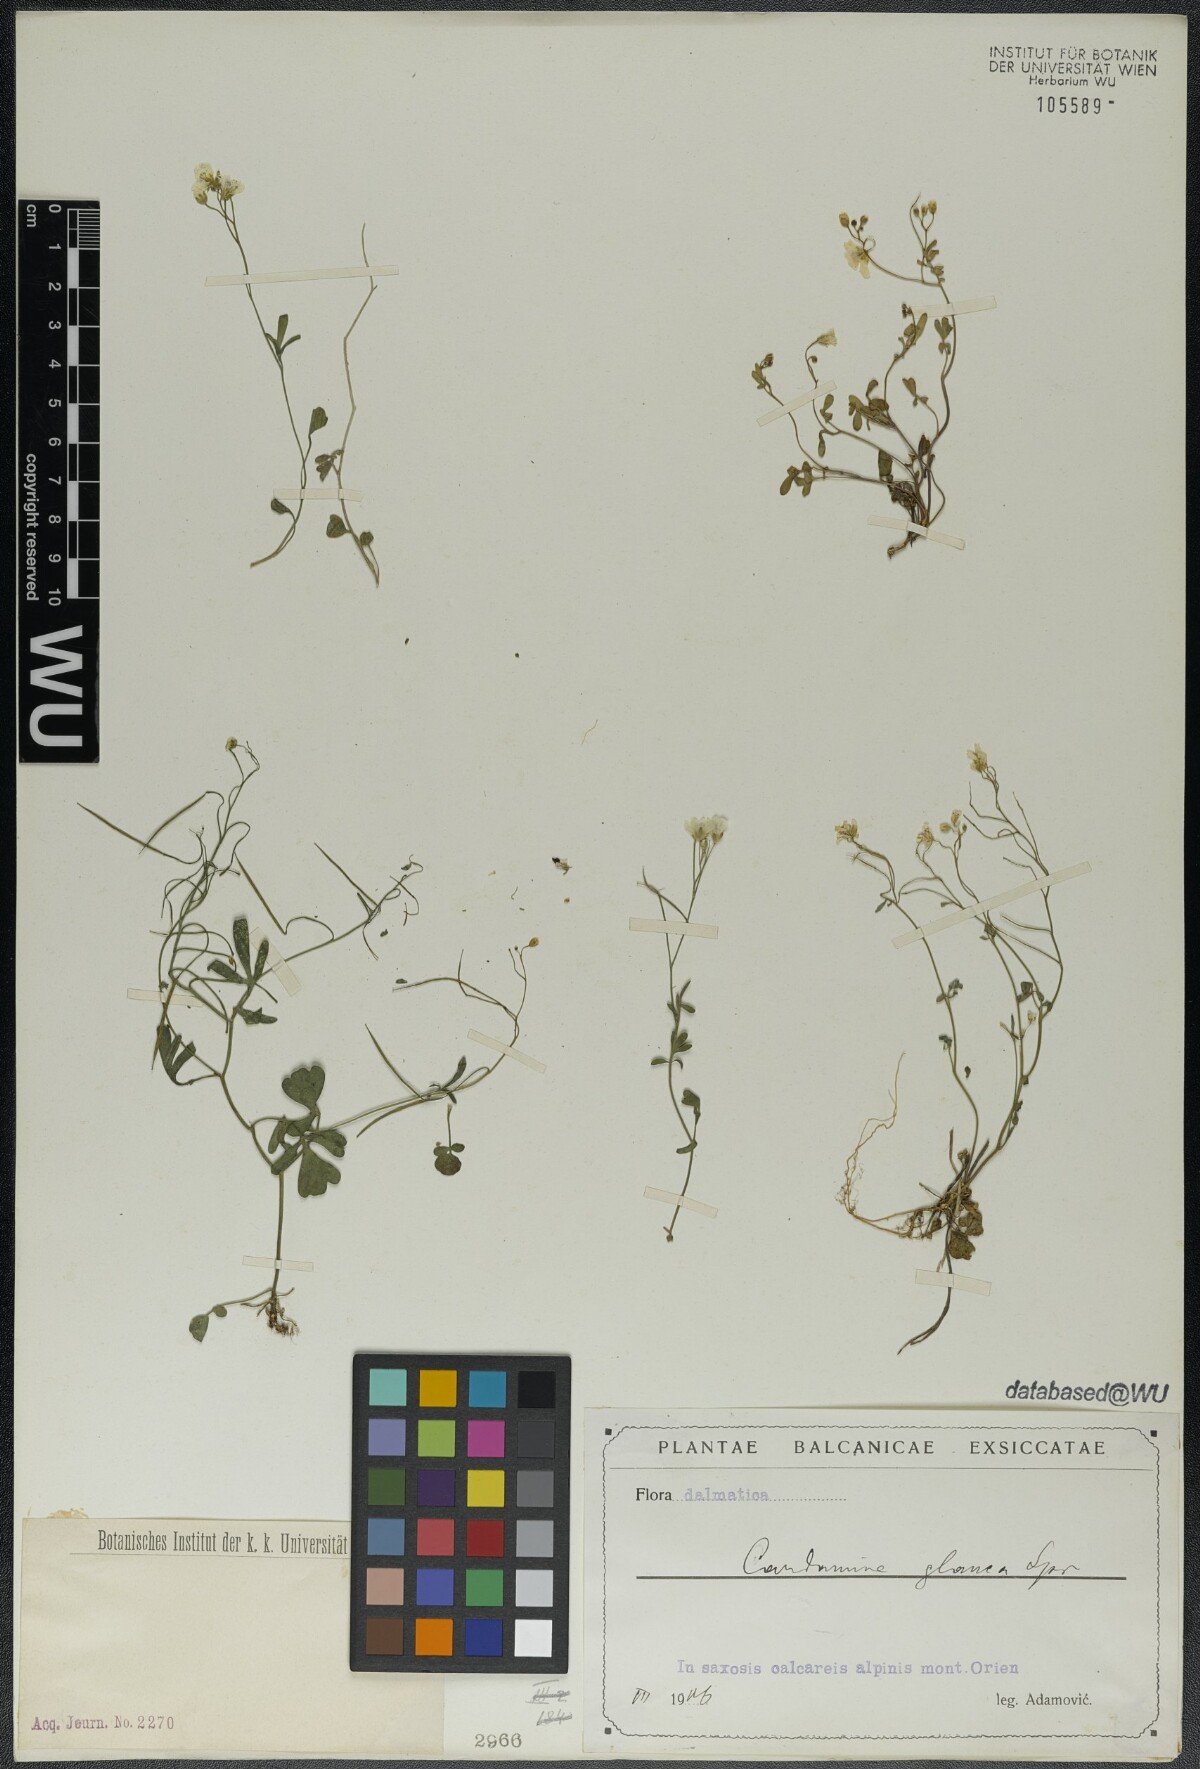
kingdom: Plantae
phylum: Tracheophyta
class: Magnoliopsida
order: Brassicales
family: Brassicaceae
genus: Cardamine
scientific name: Cardamine glauca
